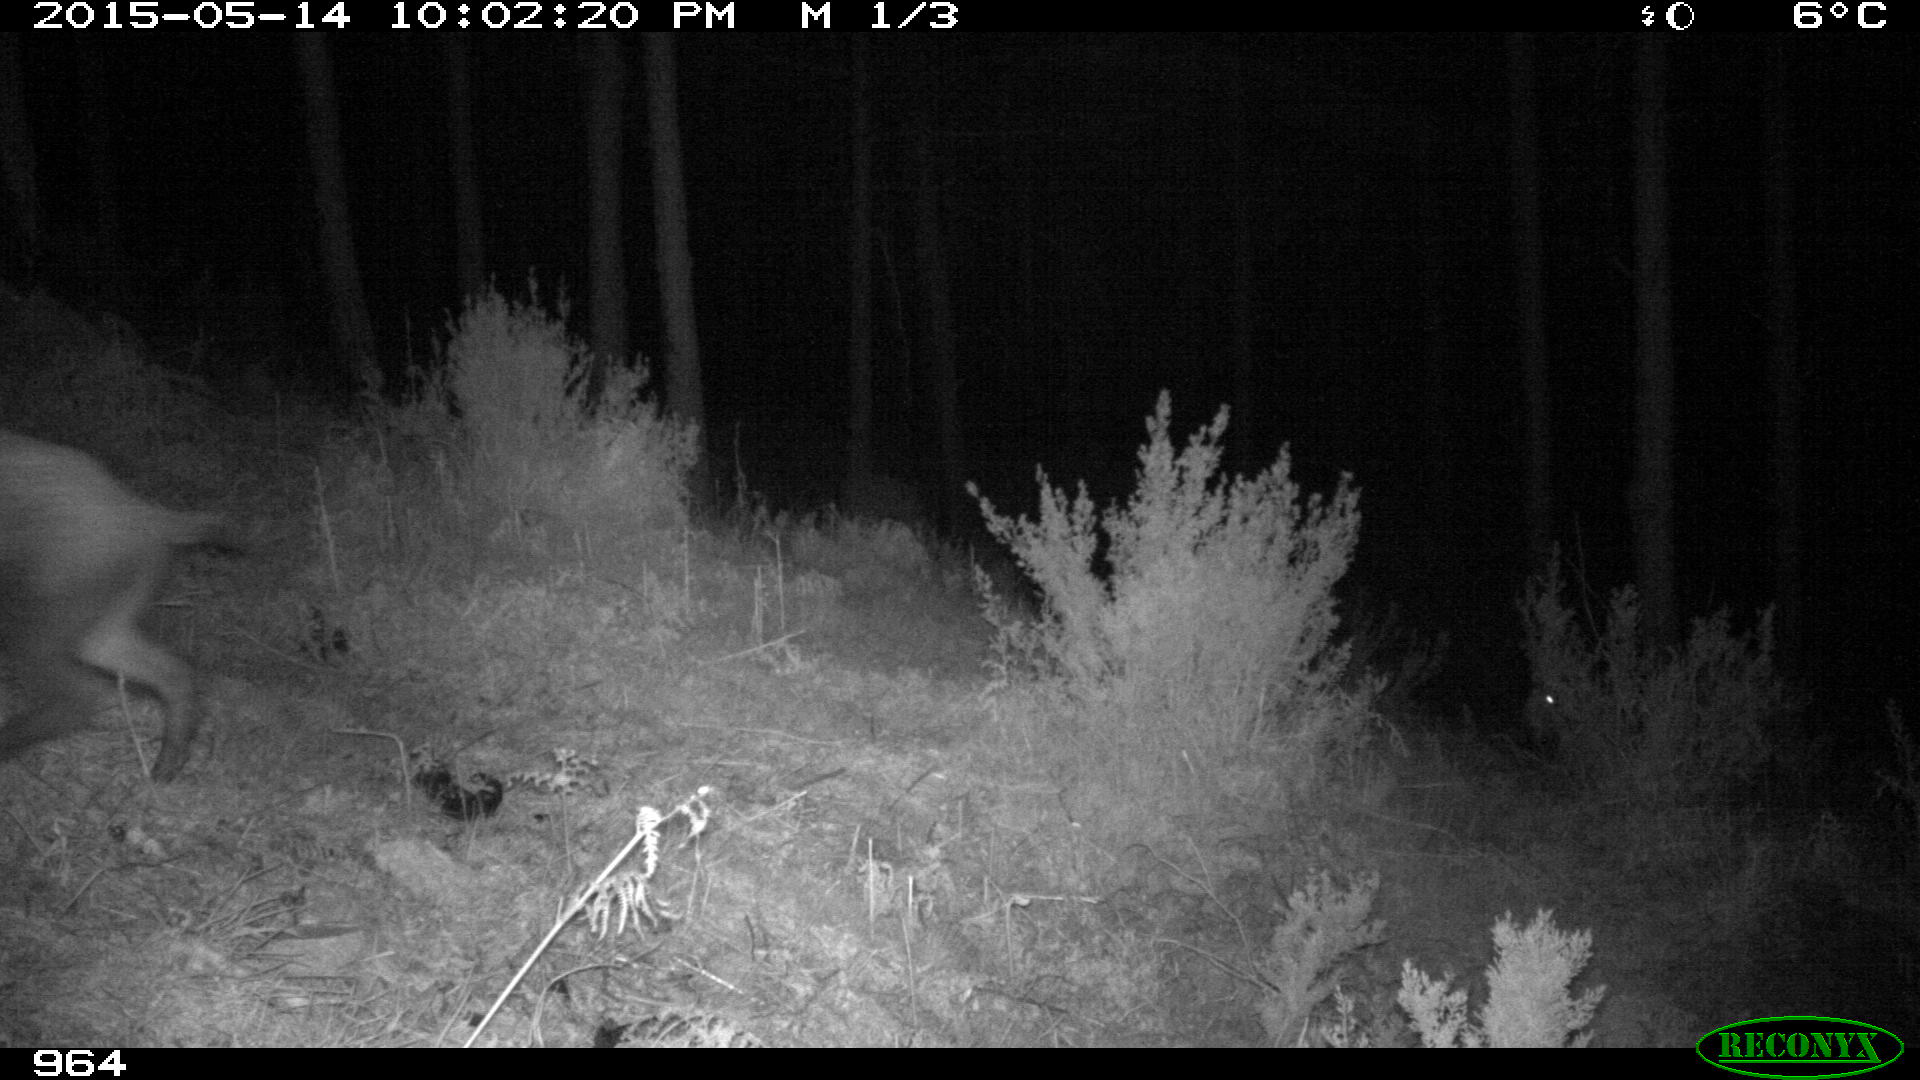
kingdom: Animalia
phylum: Chordata
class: Mammalia
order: Artiodactyla
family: Suidae
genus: Sus
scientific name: Sus scrofa
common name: Wild boar
